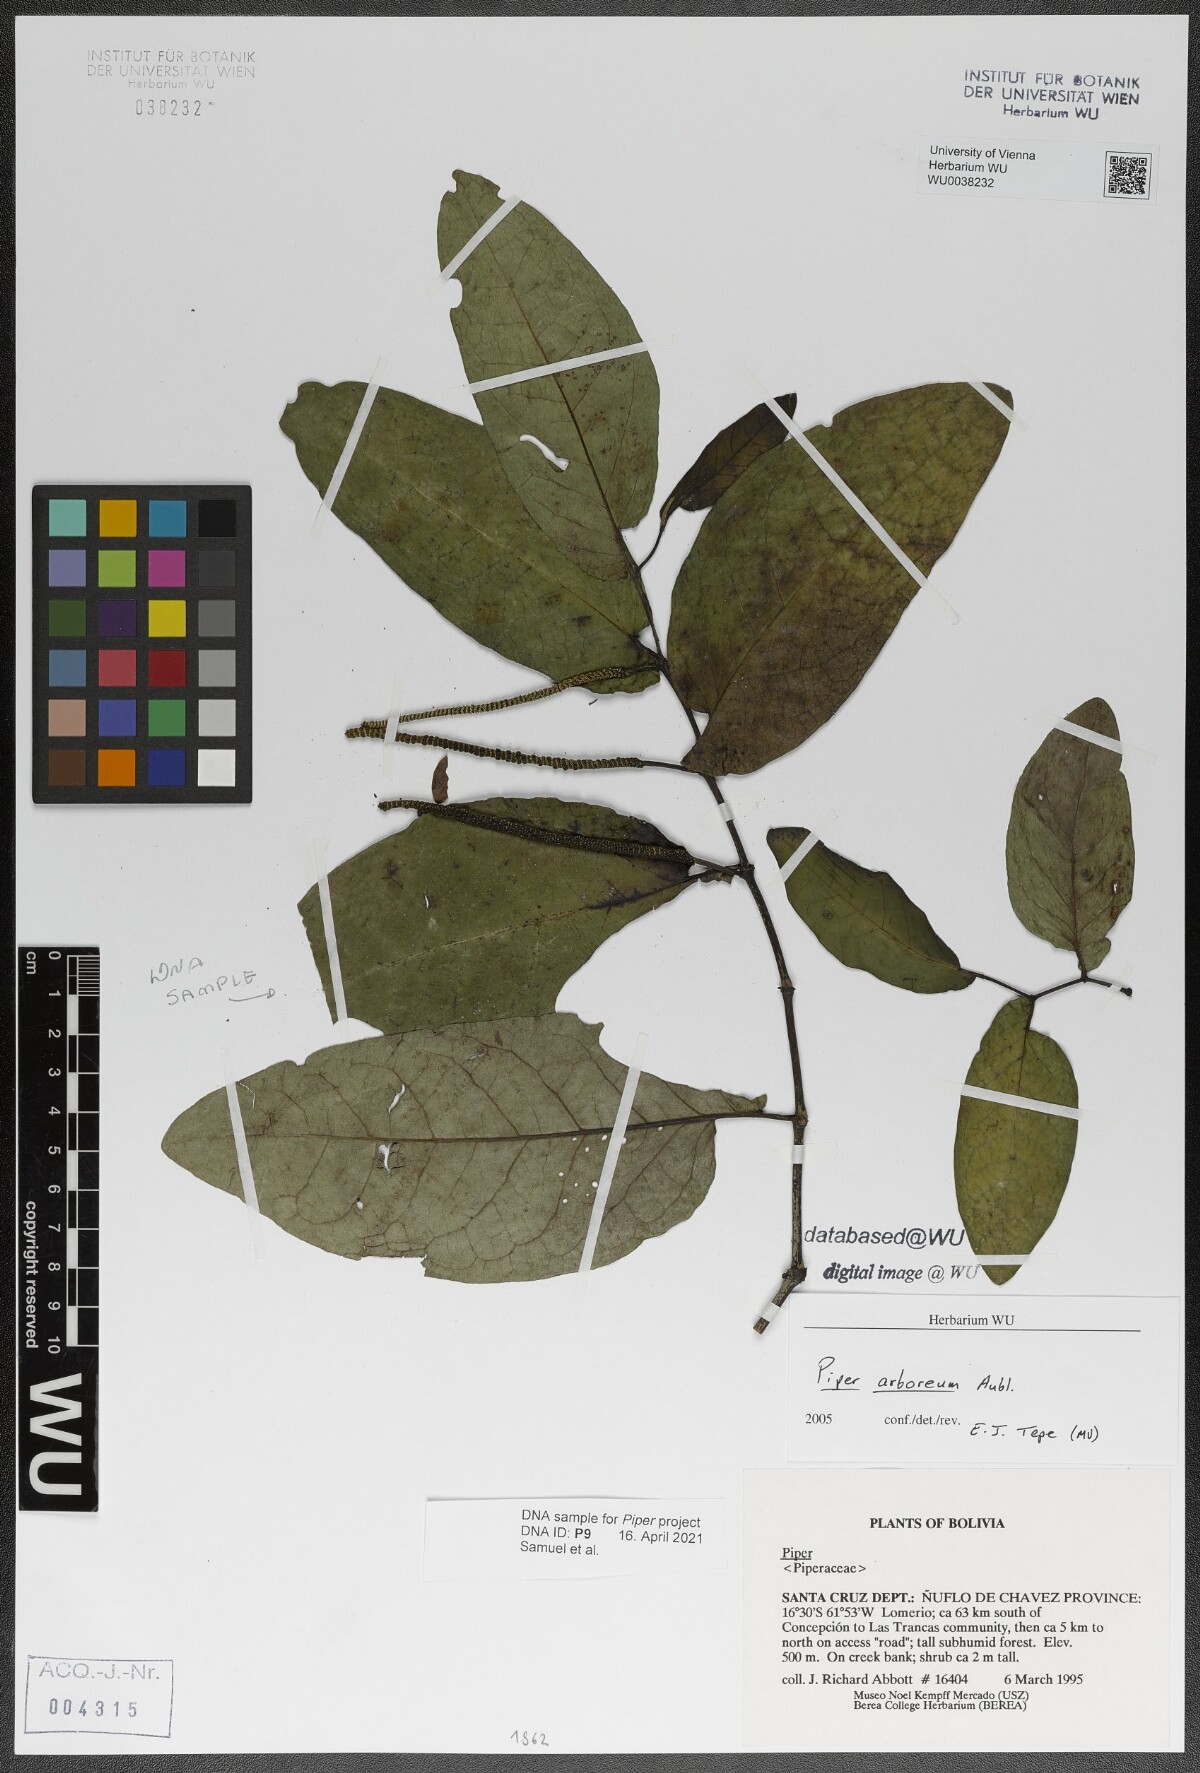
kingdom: Plantae
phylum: Tracheophyta
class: Magnoliopsida
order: Piperales
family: Piperaceae
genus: Piper
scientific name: Piper arboreum
